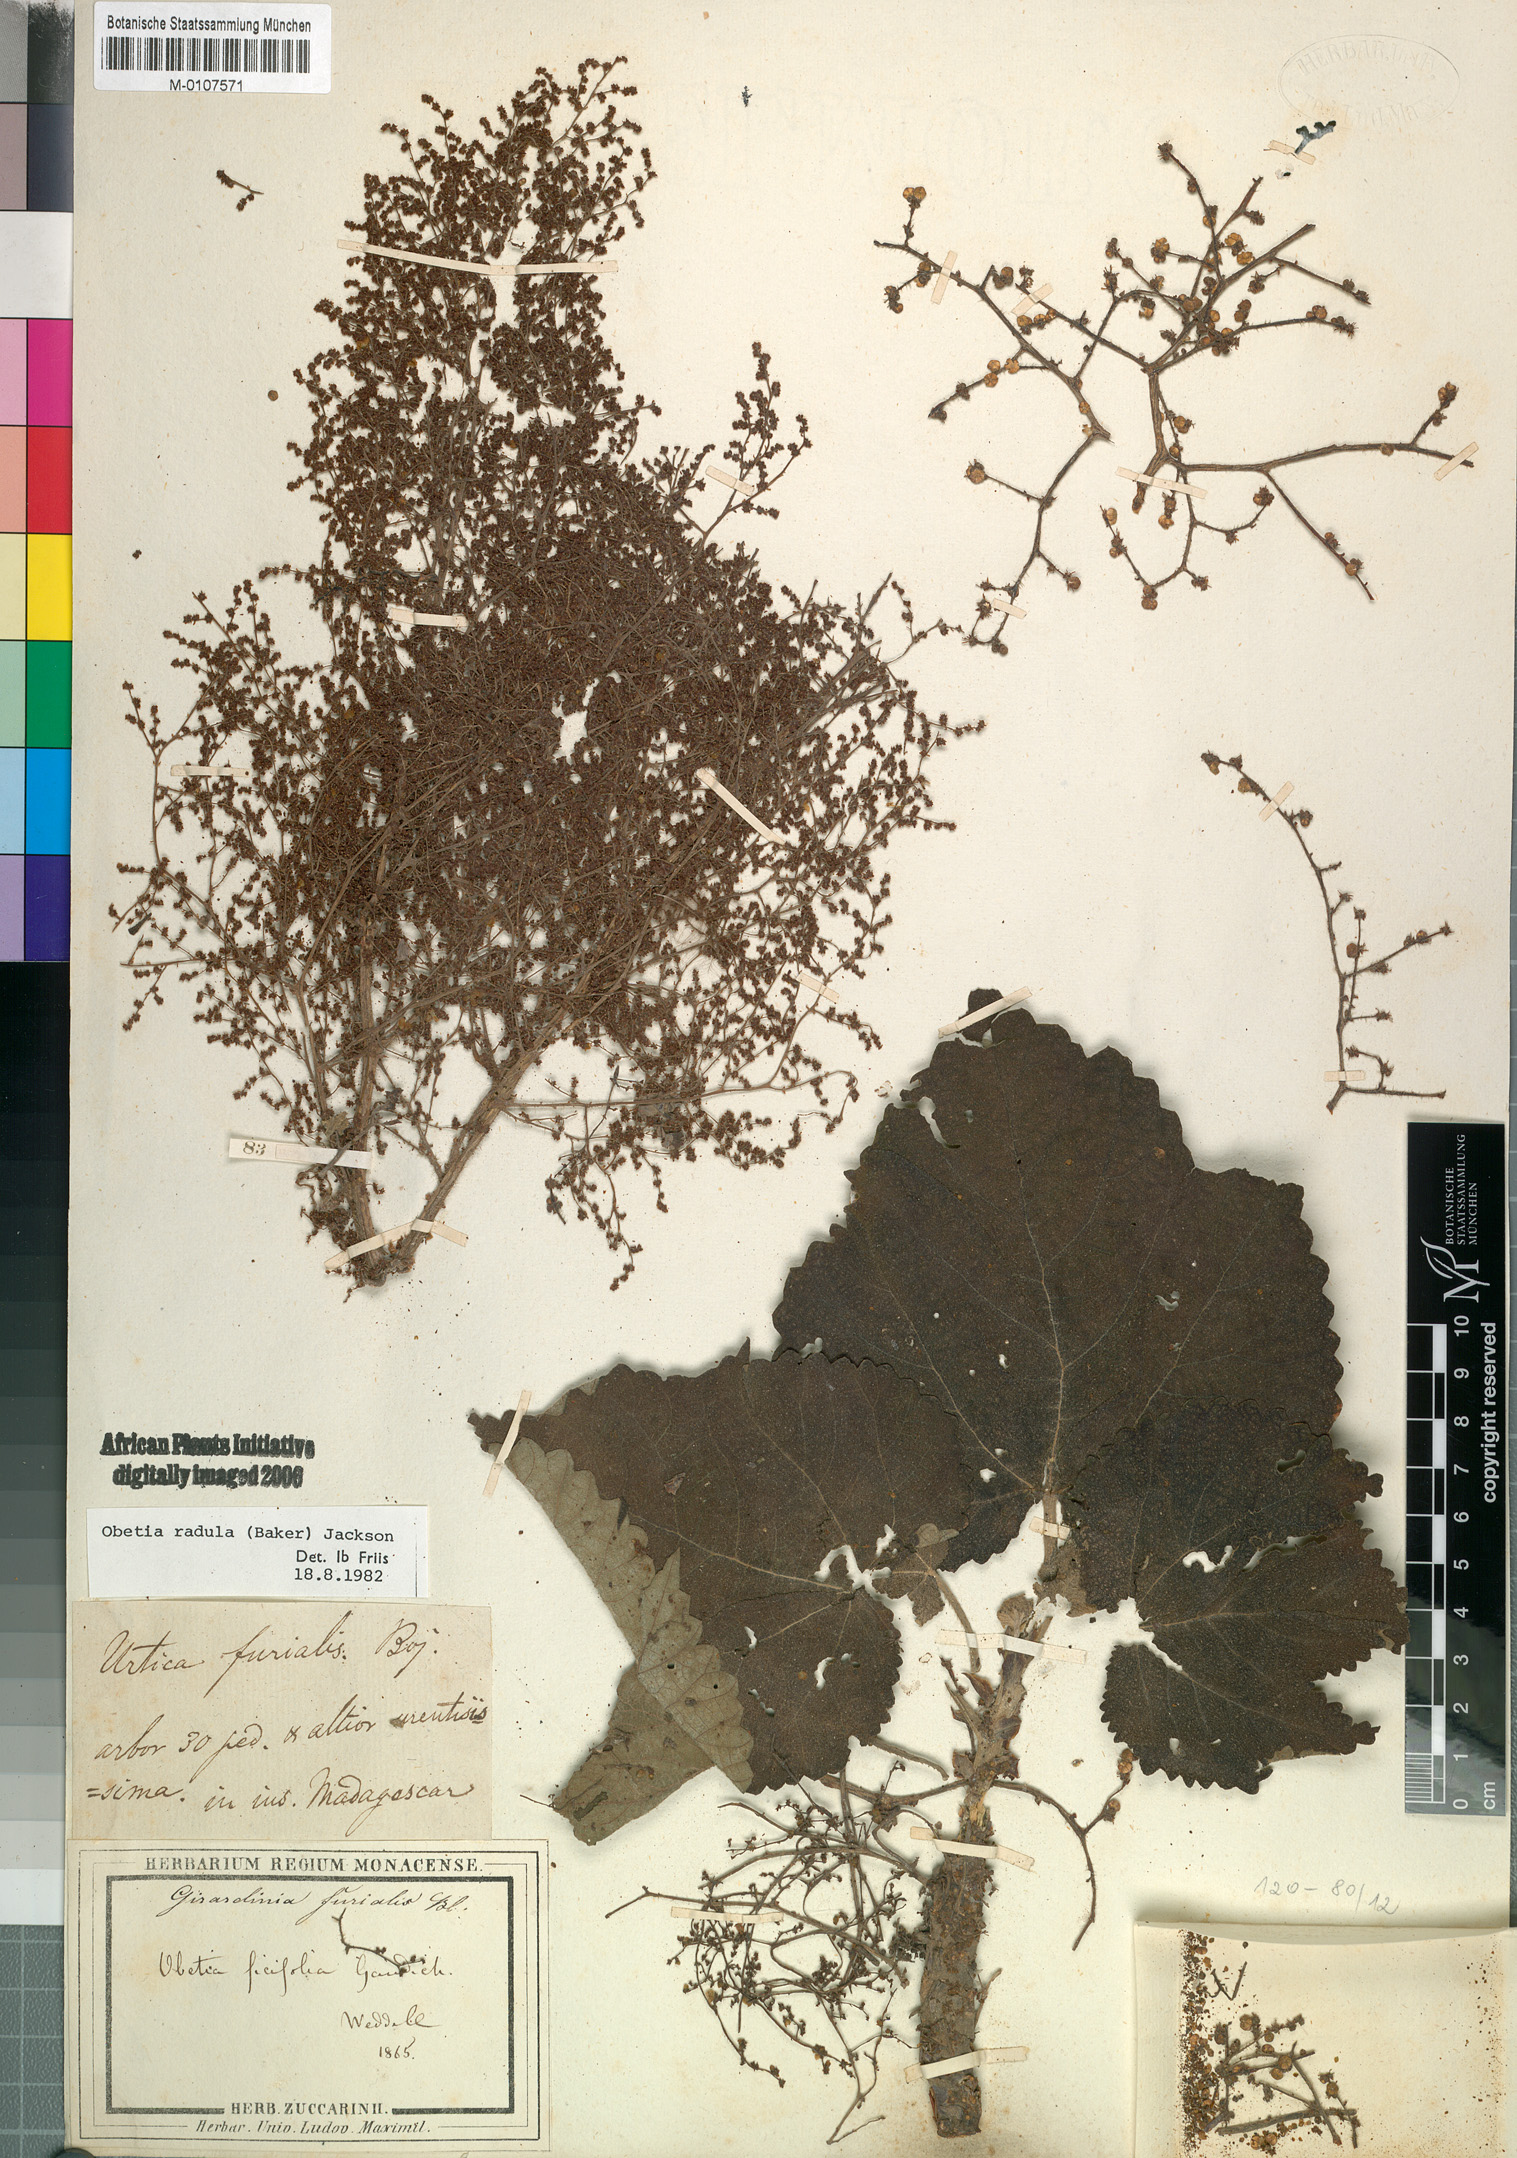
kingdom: Plantae
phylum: Tracheophyta
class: Magnoliopsida
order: Rosales
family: Urticaceae
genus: Obetia
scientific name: Obetia radula
